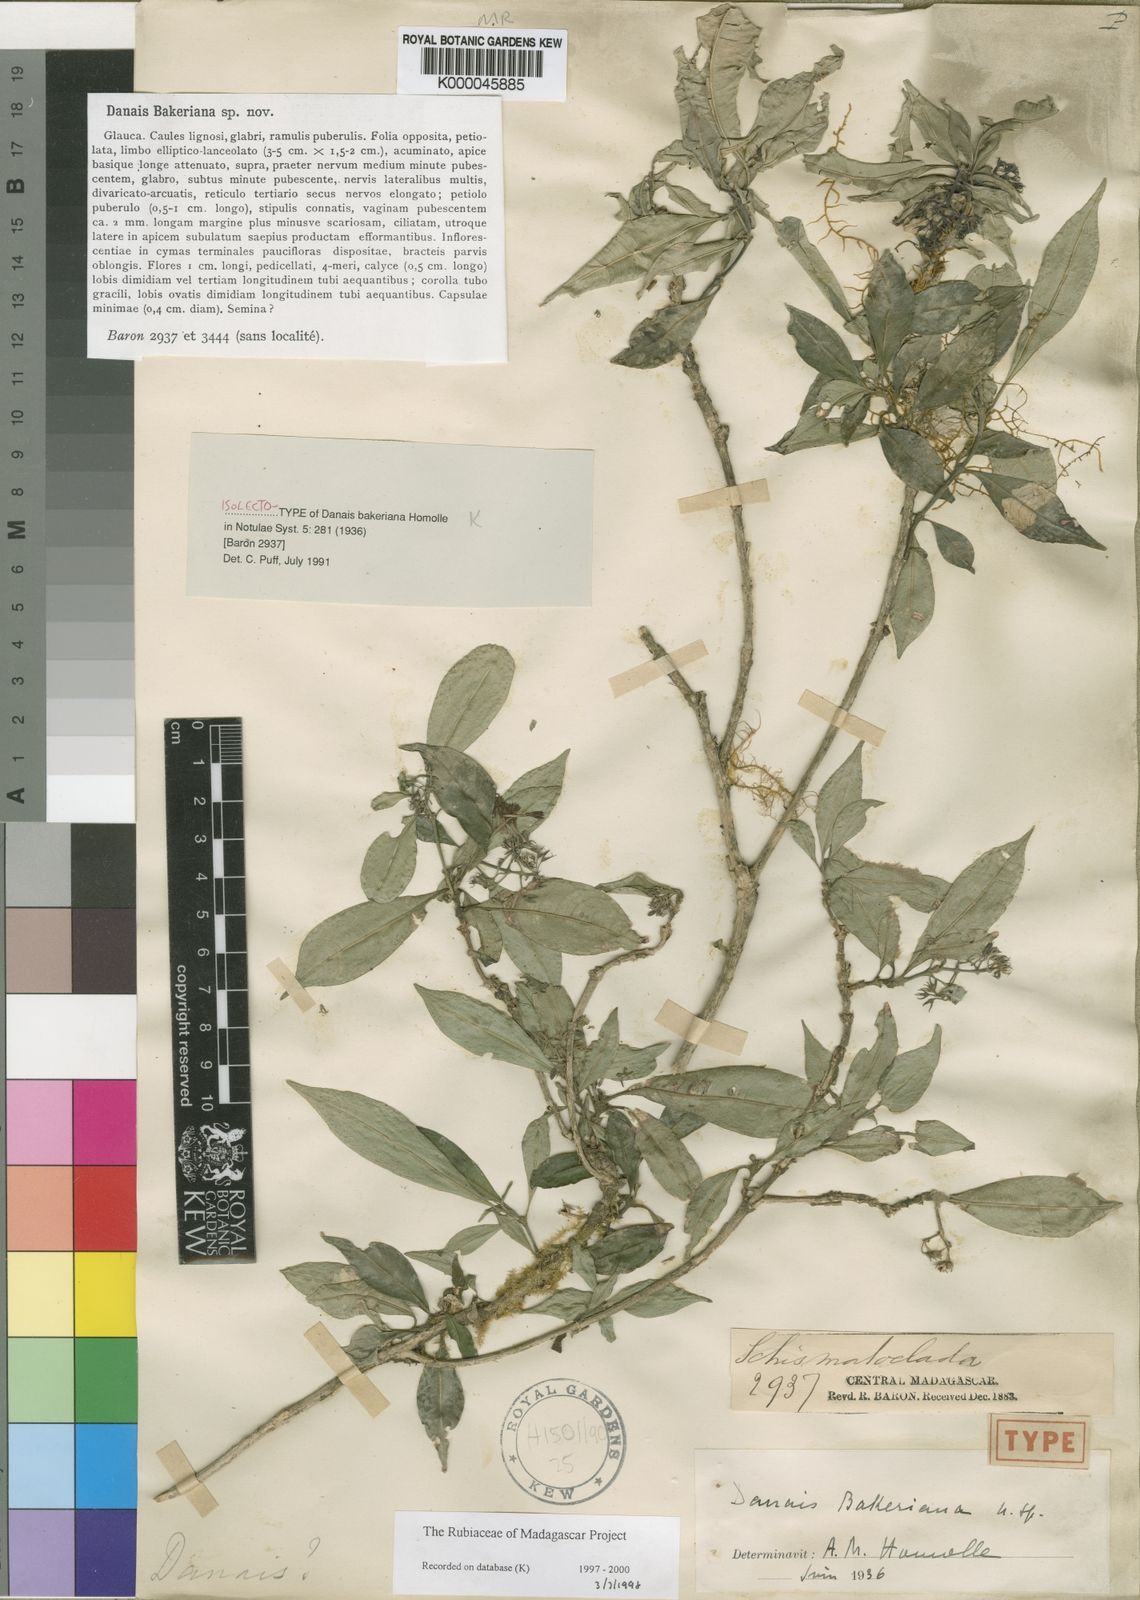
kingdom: Plantae
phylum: Tracheophyta
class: Magnoliopsida
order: Gentianales
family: Rubiaceae
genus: Payera
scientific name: Payera bakeriana
